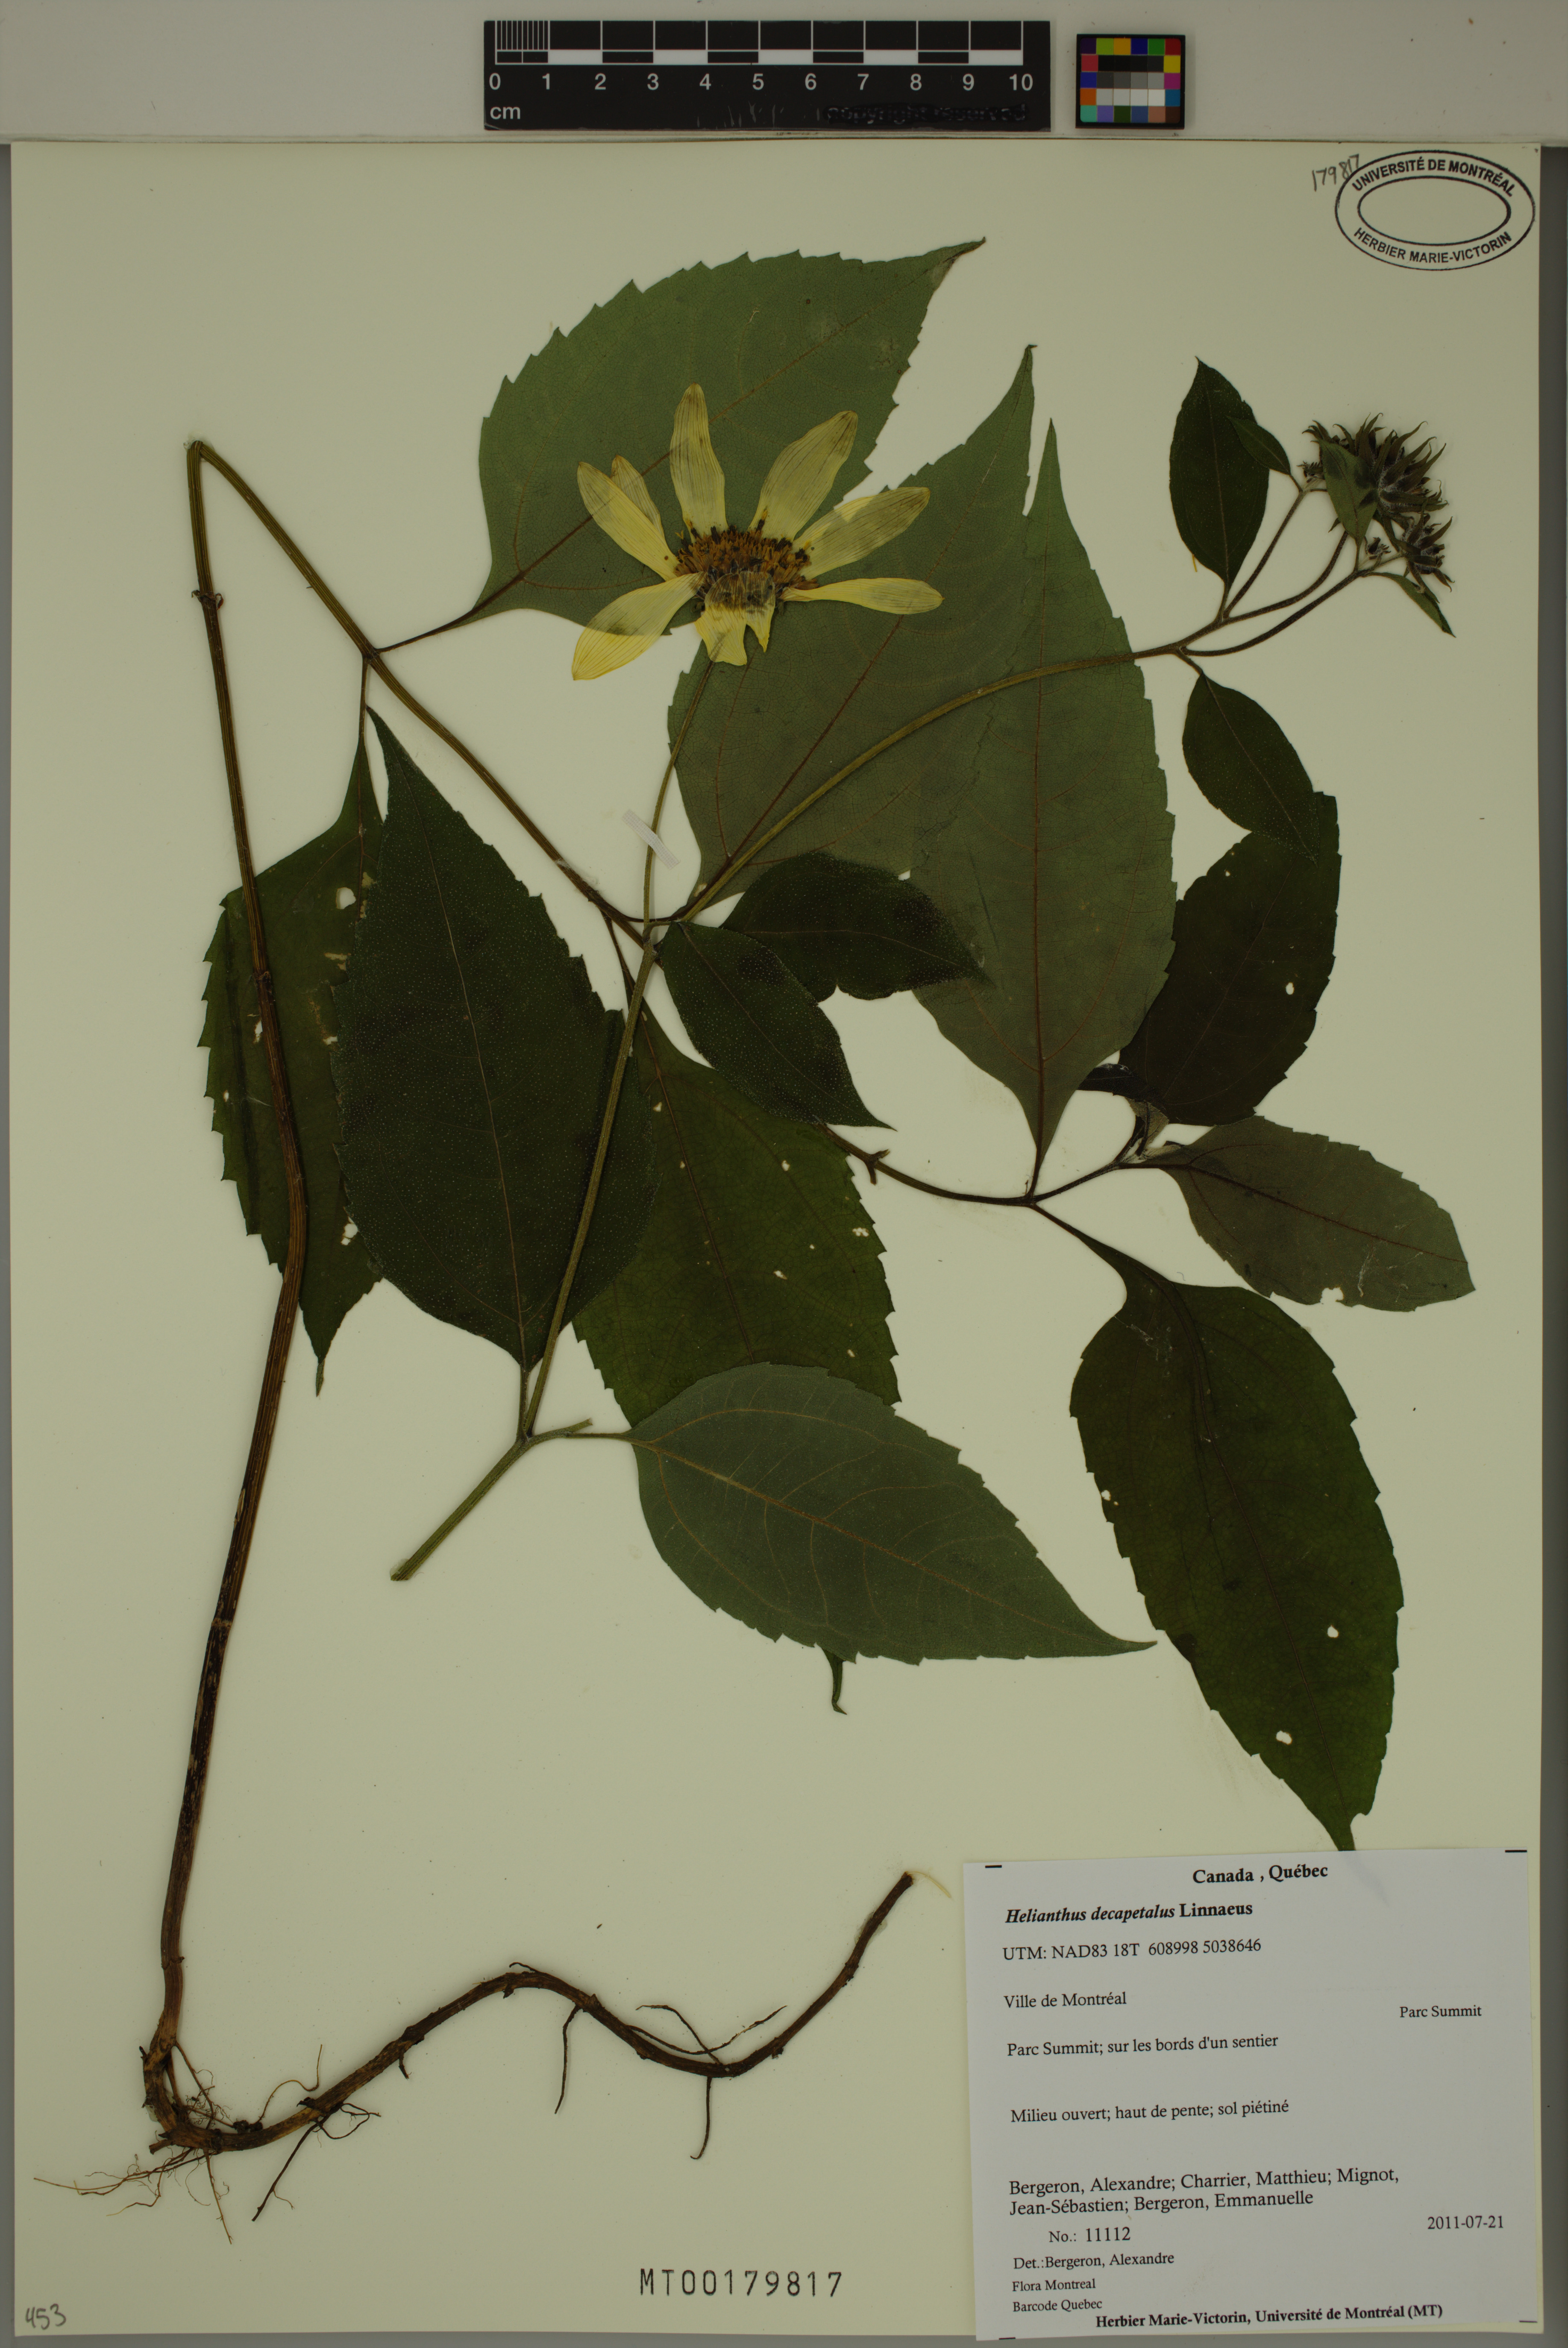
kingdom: Plantae
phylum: Tracheophyta
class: Magnoliopsida
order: Asterales
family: Asteraceae
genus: Helianthus
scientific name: Helianthus decapetalus
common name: Thin-leaved sunflower
